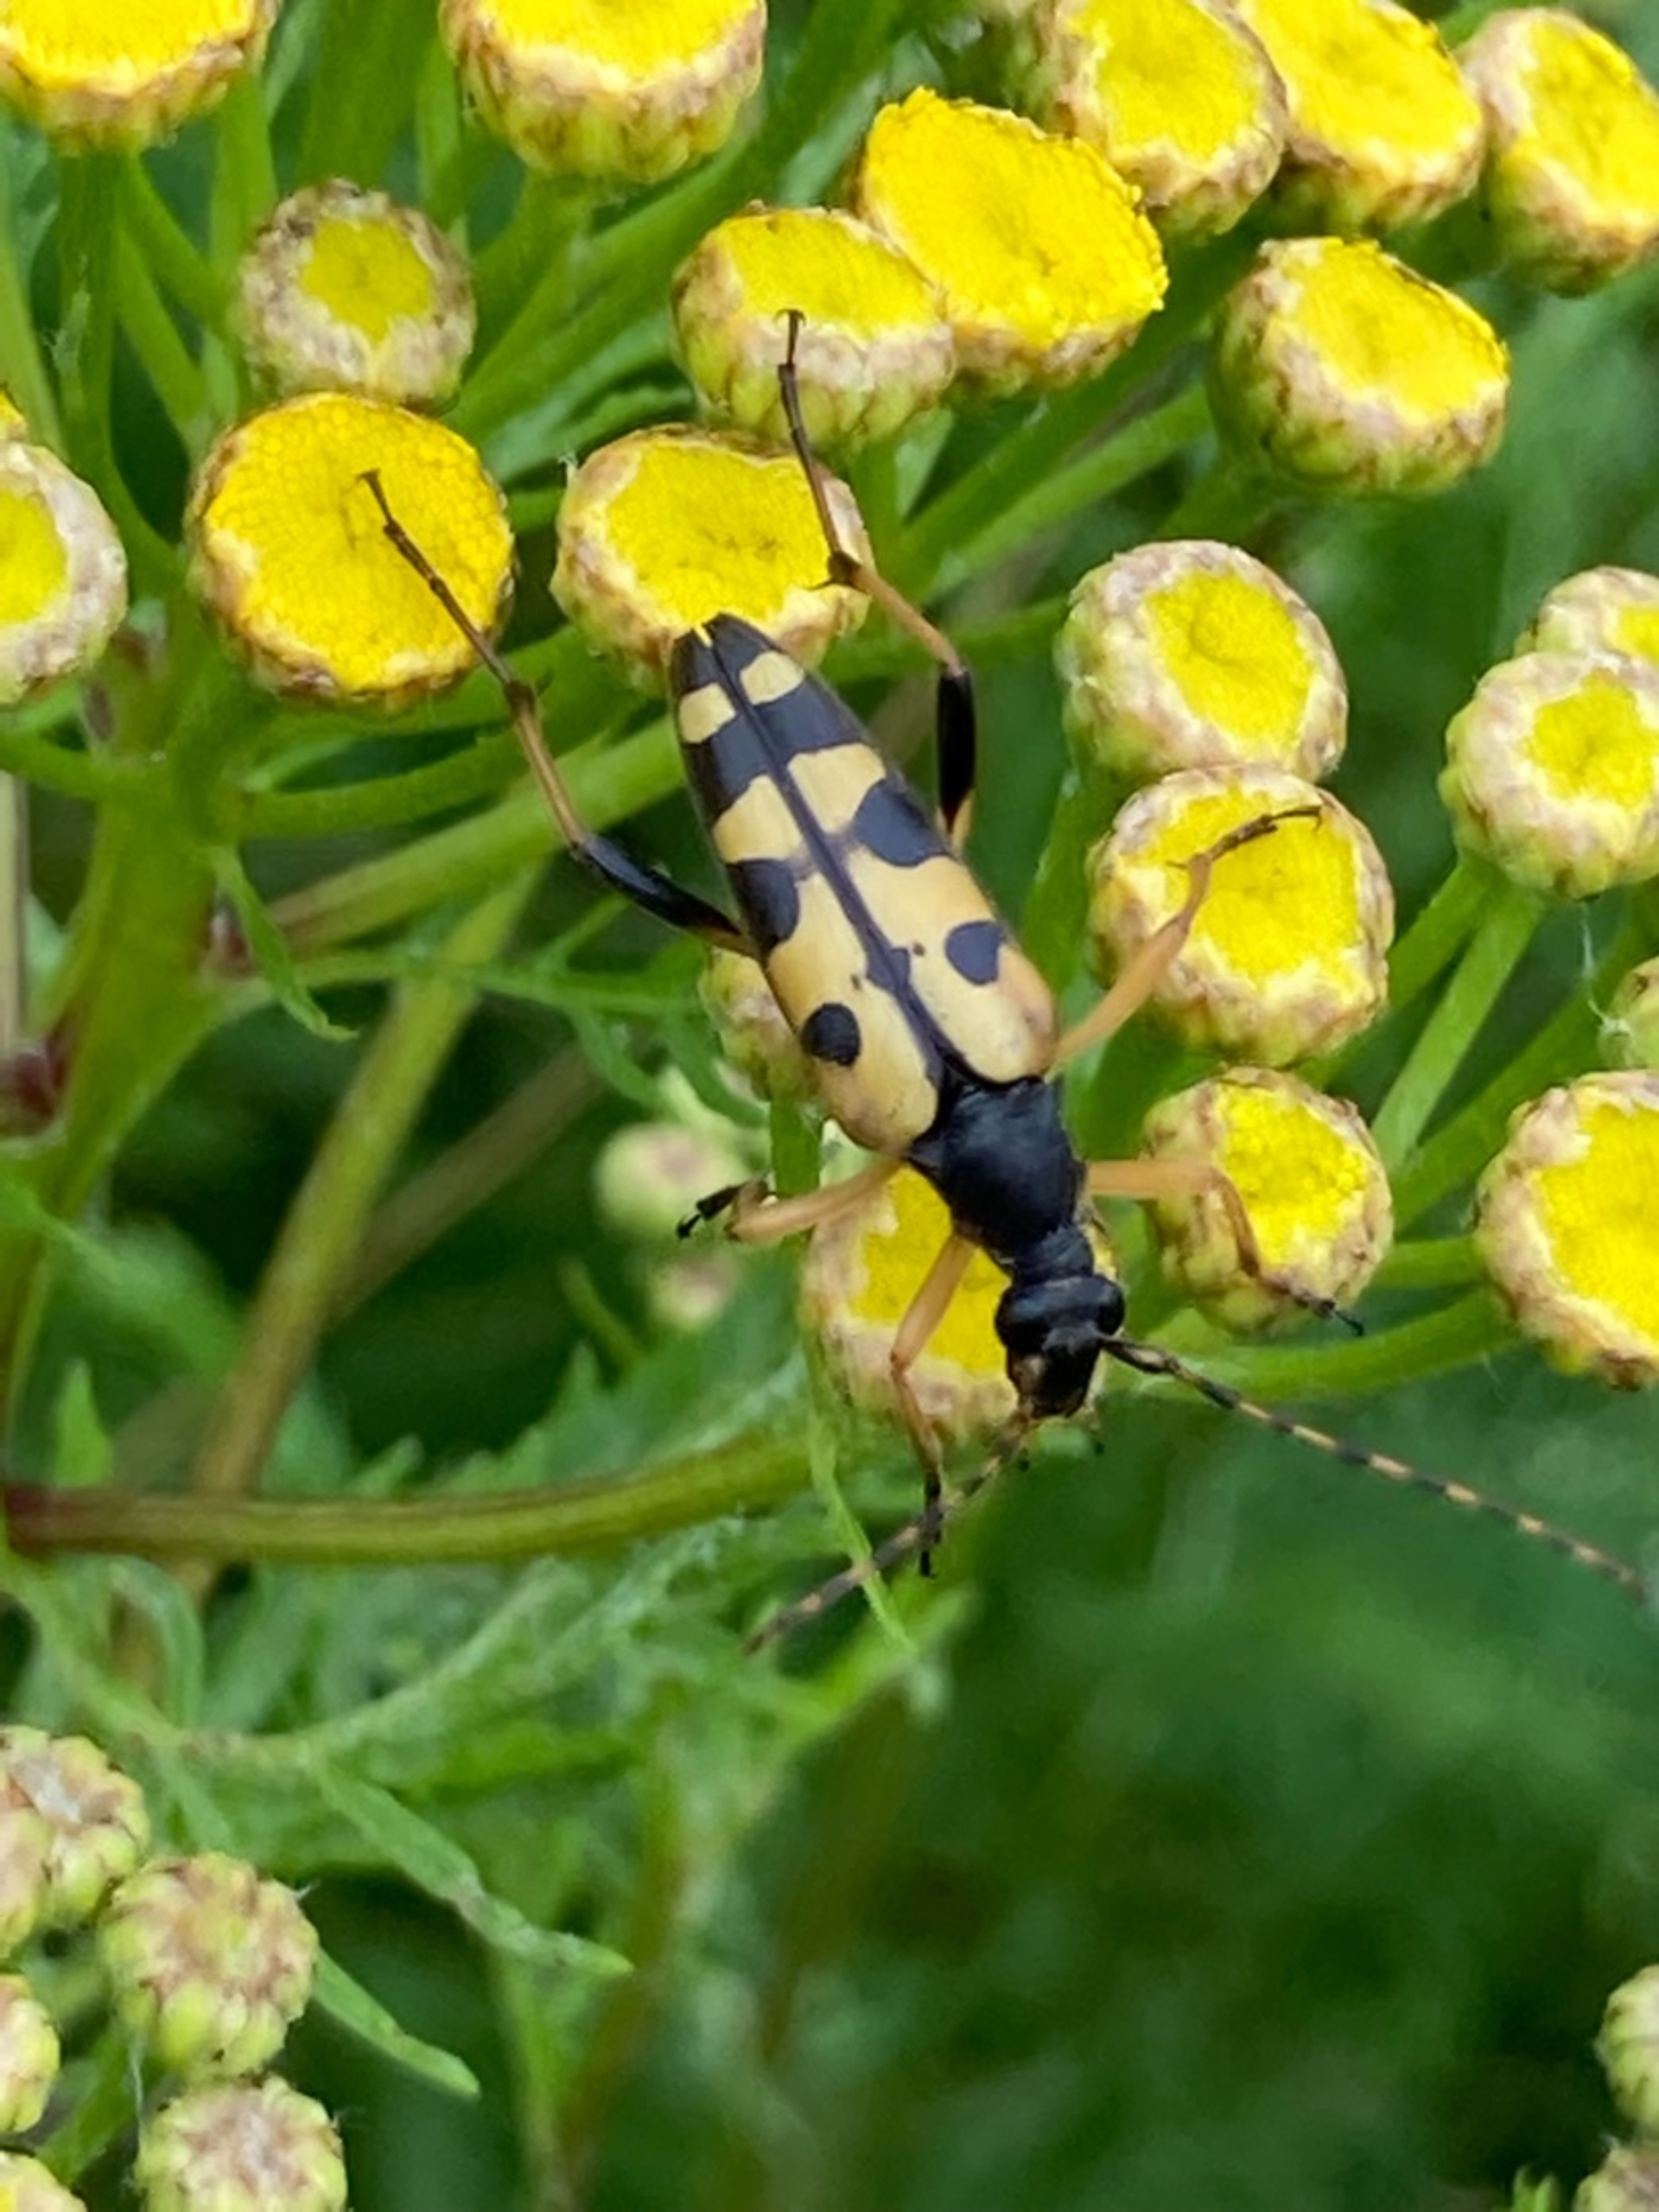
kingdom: Animalia
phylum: Arthropoda
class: Insecta
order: Coleoptera
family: Cerambycidae
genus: Rutpela
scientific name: Rutpela maculata
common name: Sydlig blomsterbuk
